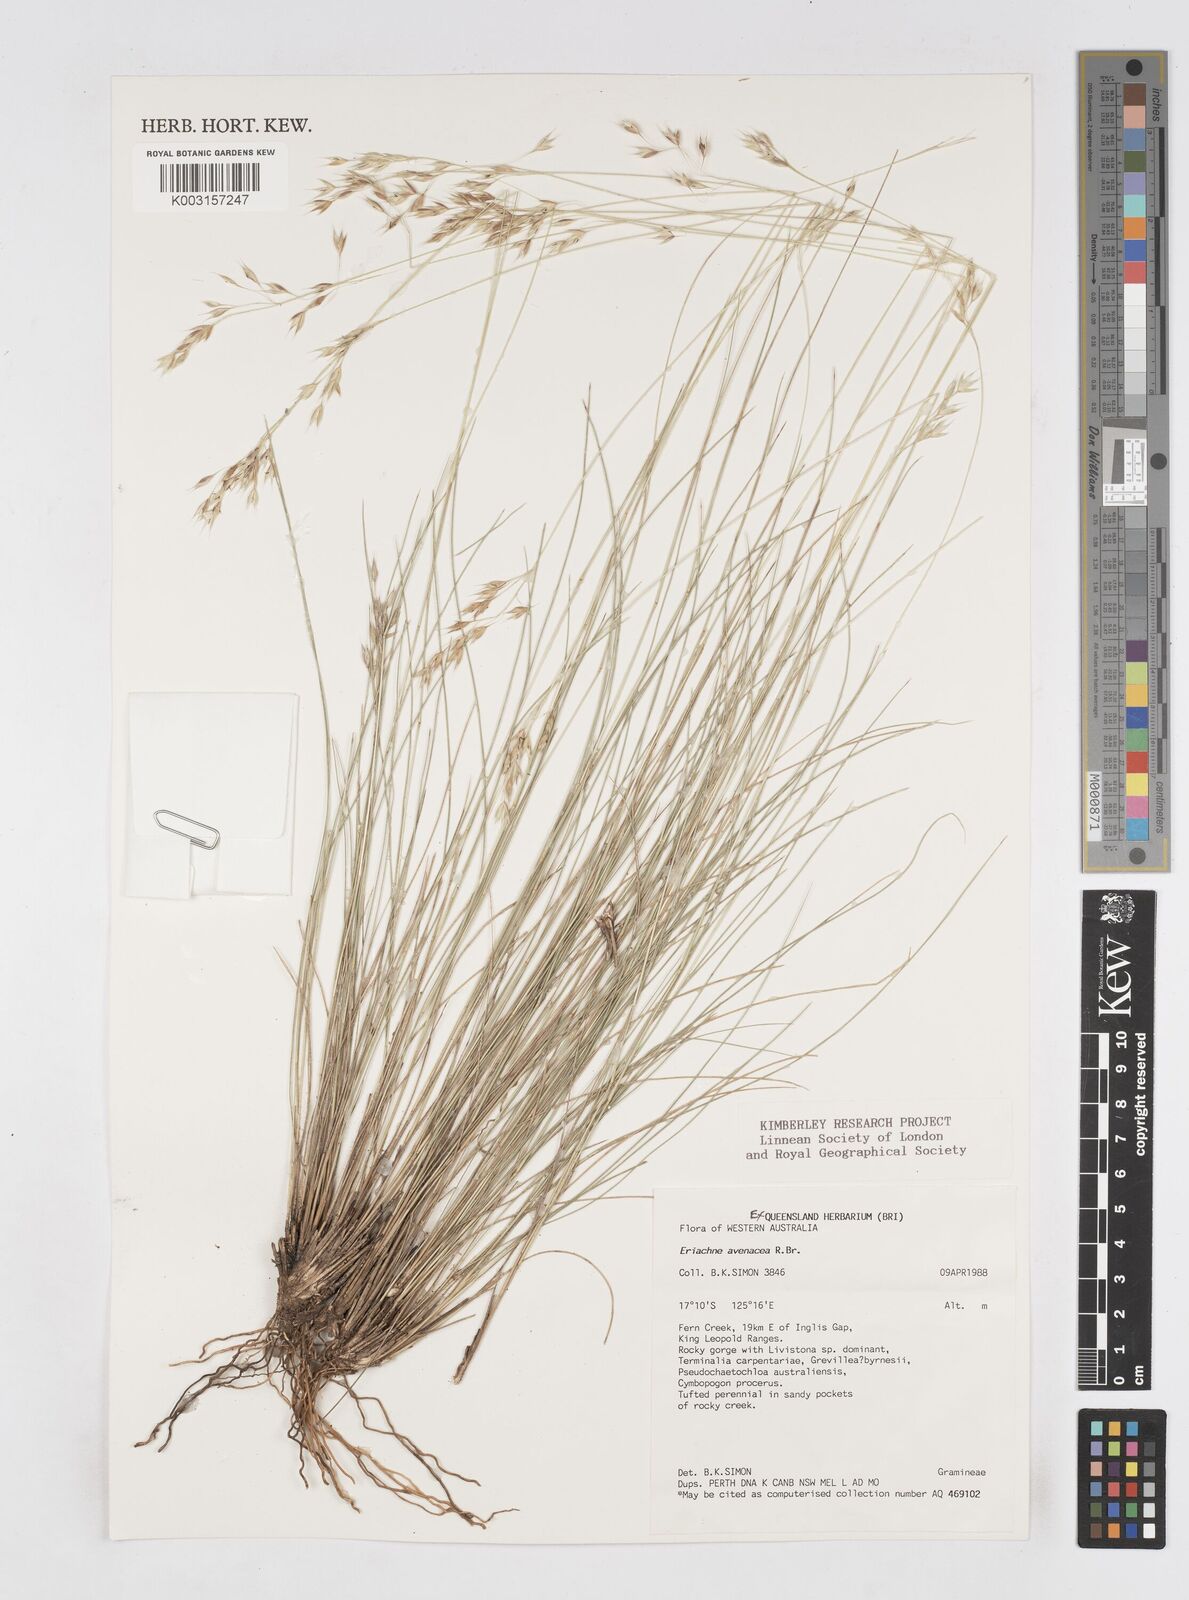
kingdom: Plantae
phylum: Tracheophyta
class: Liliopsida
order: Poales
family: Poaceae
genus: Eriachne
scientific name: Eriachne avenacea
